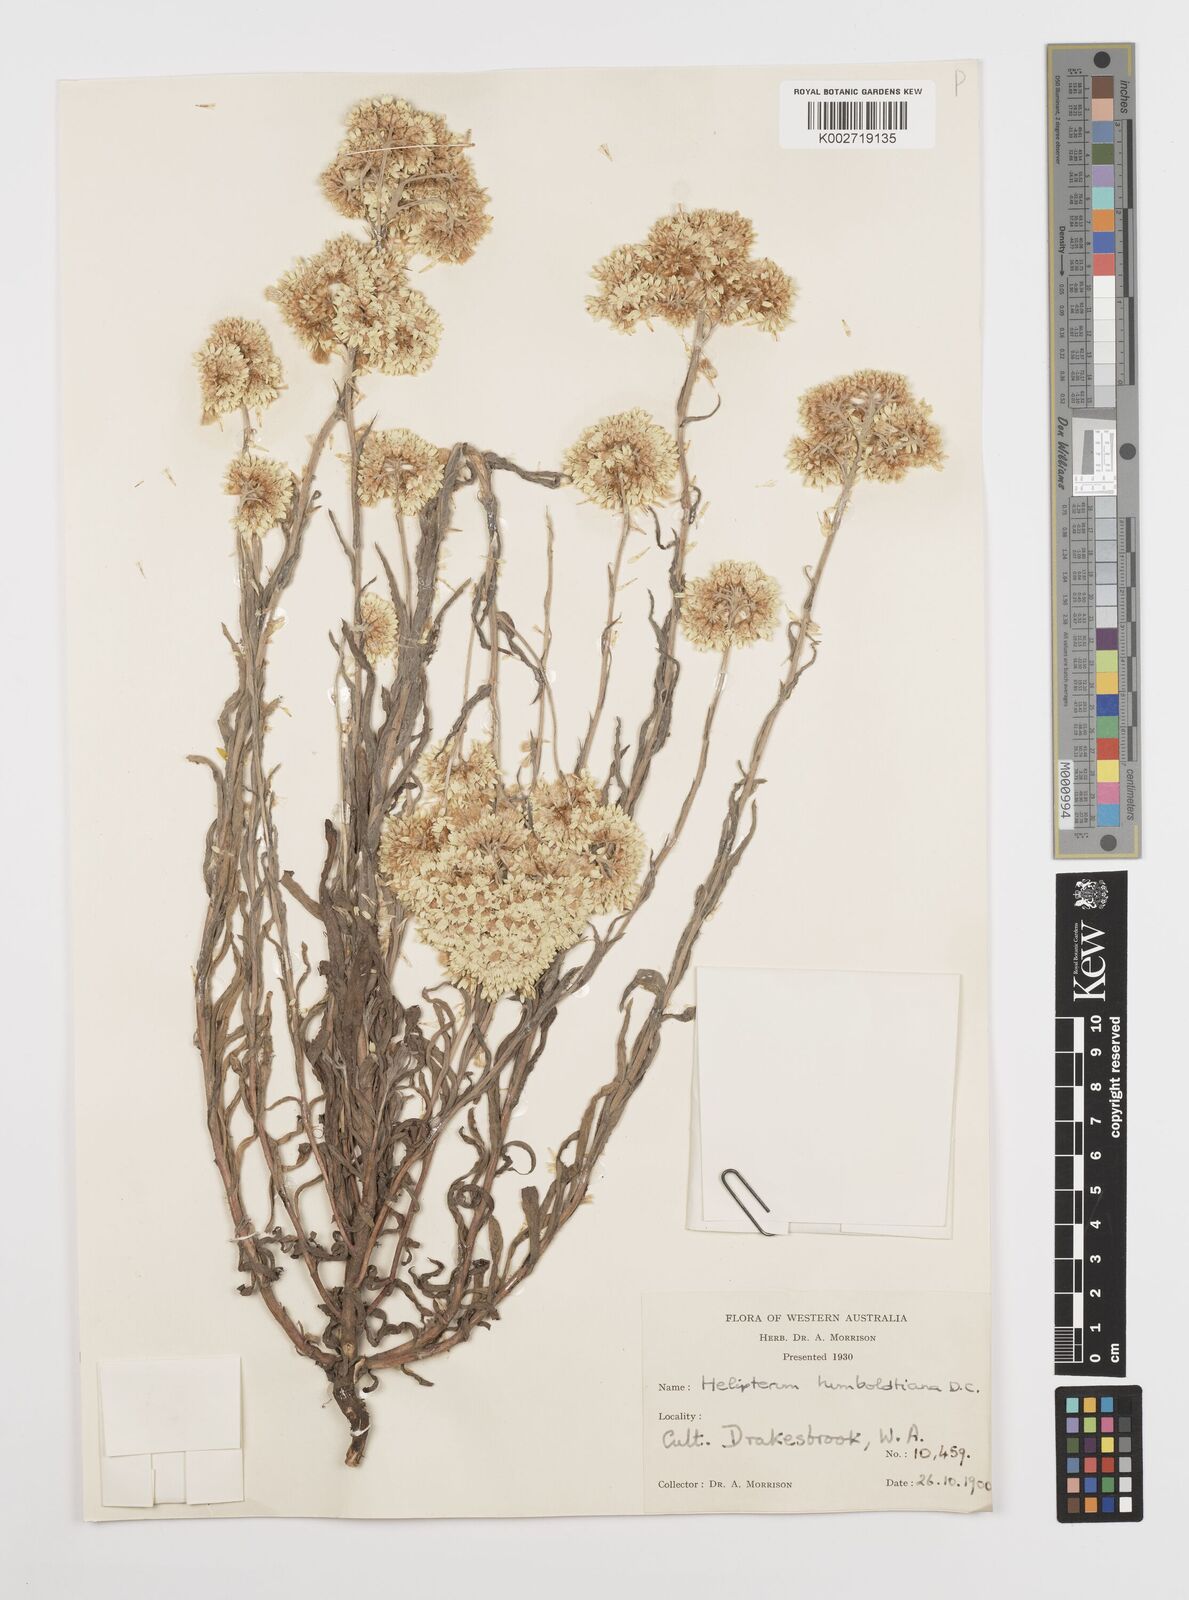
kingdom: Plantae
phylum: Tracheophyta
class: Magnoliopsida
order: Asterales
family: Asteraceae
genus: Rhodanthe
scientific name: Rhodanthe humboldtiana
